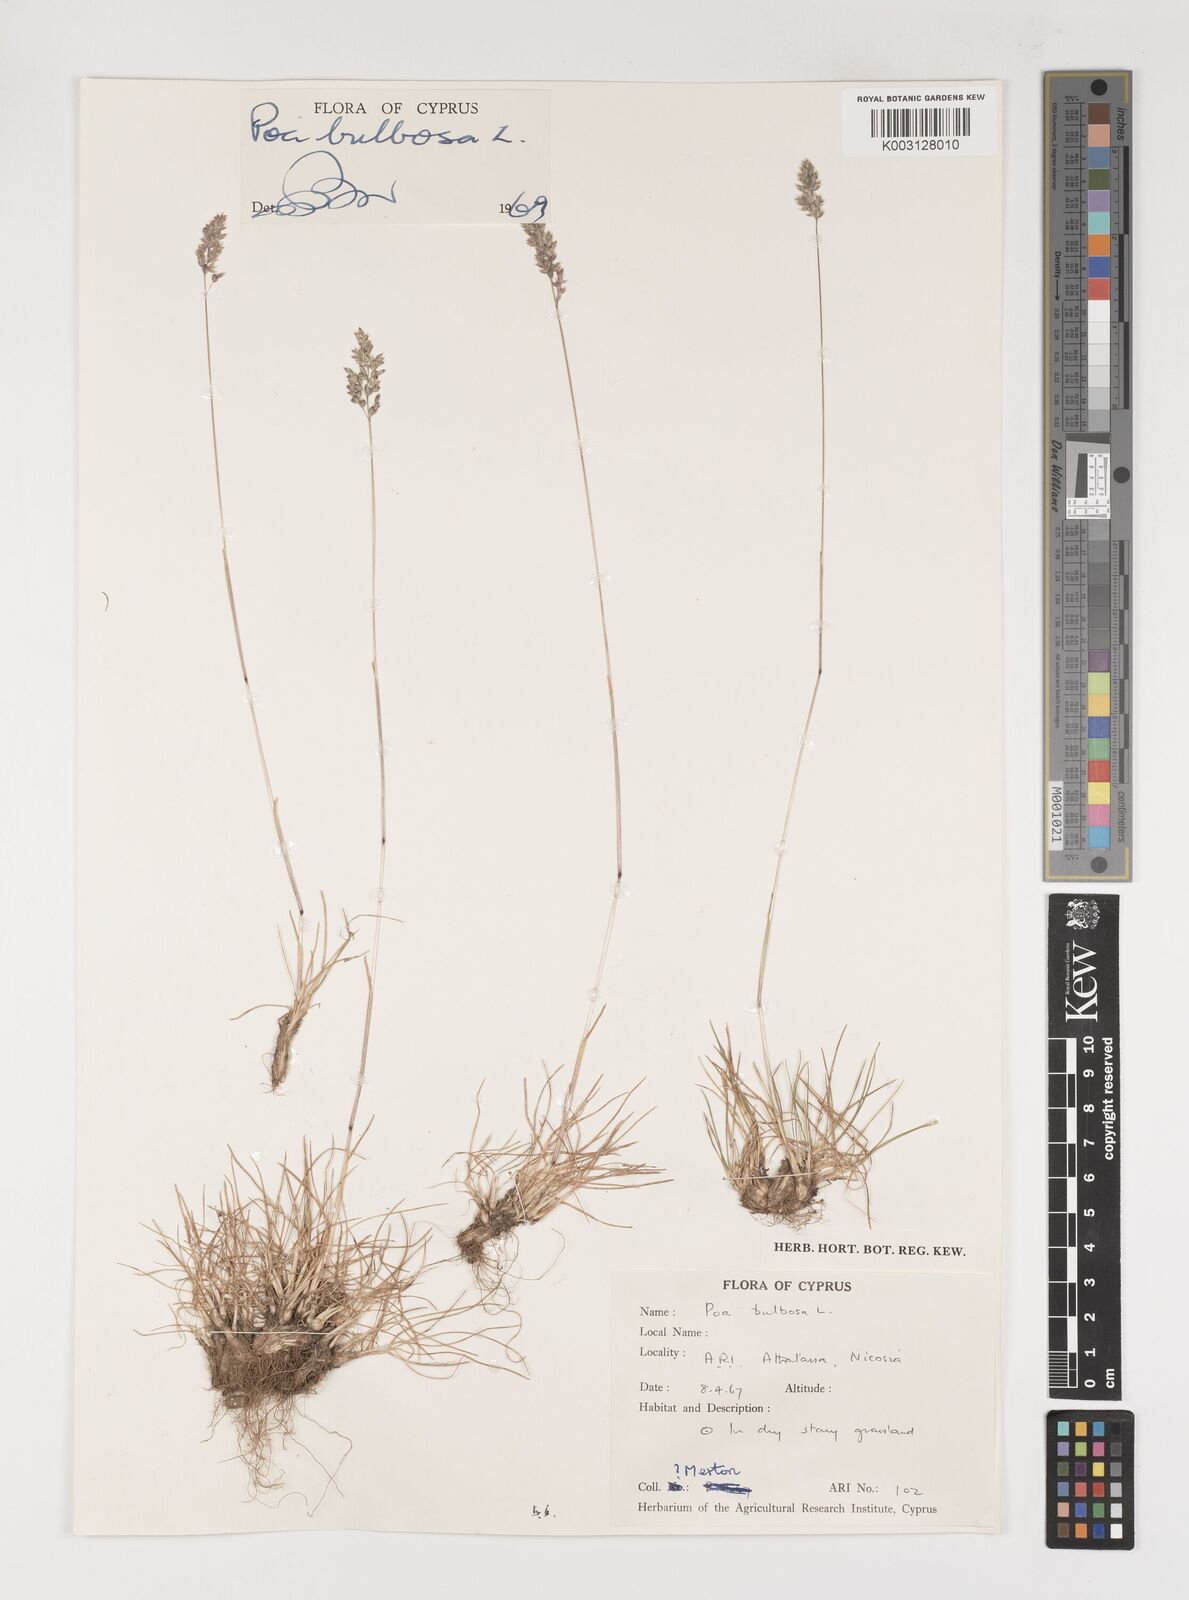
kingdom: Plantae
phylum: Tracheophyta
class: Liliopsida
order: Poales
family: Poaceae
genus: Poa
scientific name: Poa bulbosa
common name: Bulbous bluegrass
